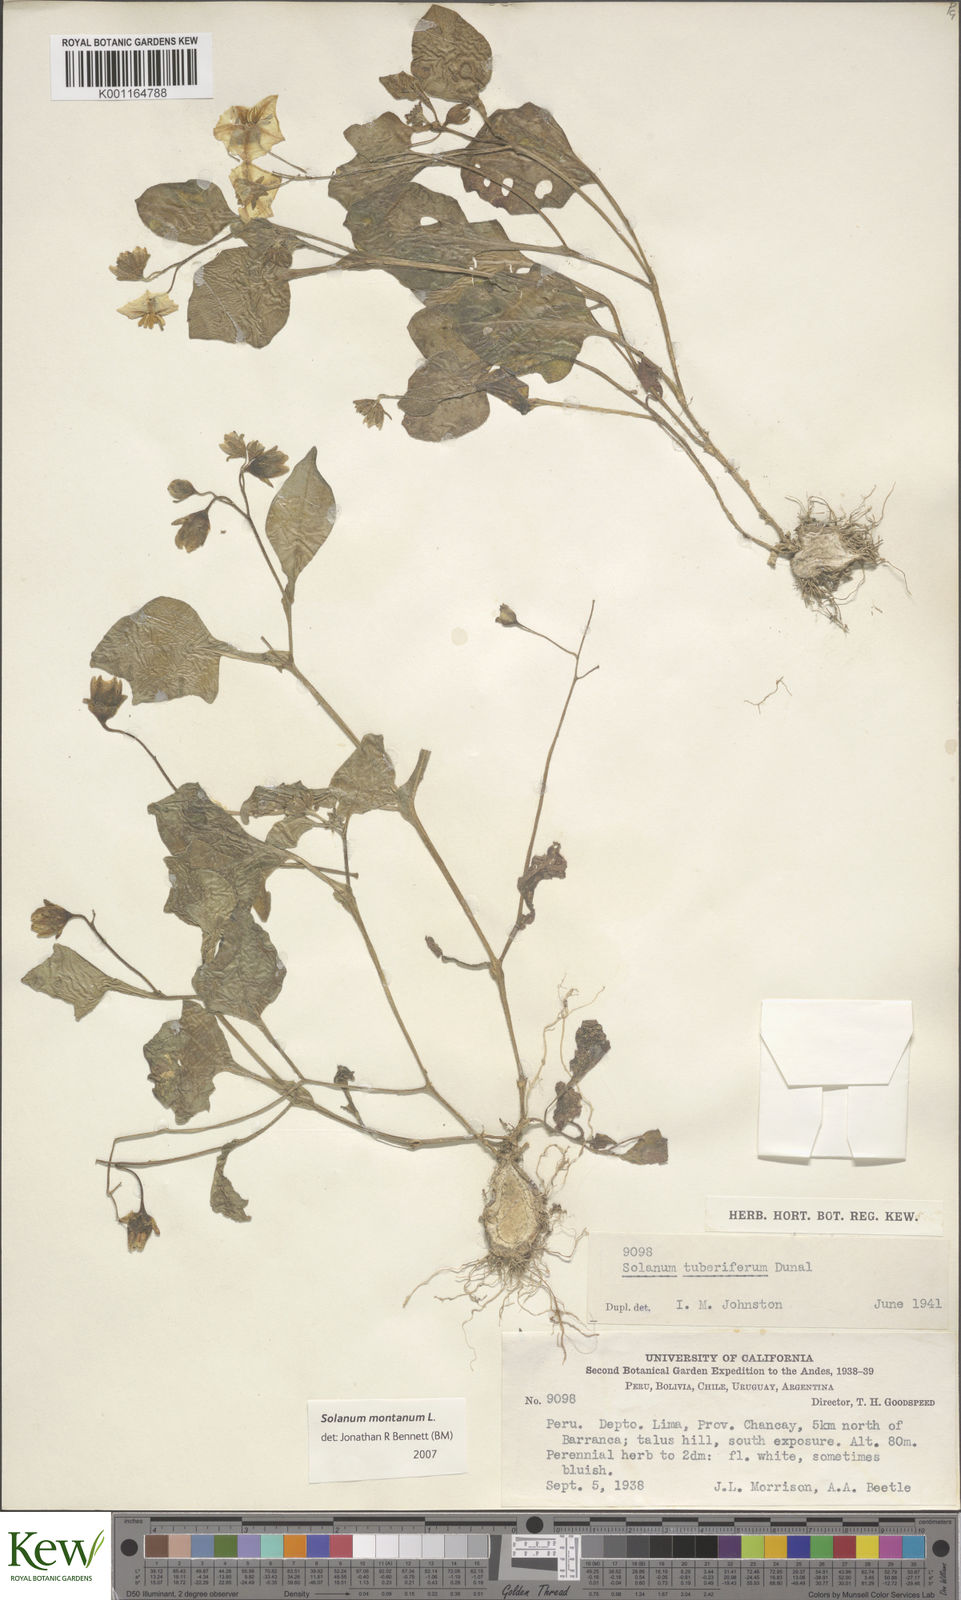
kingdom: Plantae
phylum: Tracheophyta
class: Magnoliopsida
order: Solanales
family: Solanaceae
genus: Solanum
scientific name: Solanum montanum
